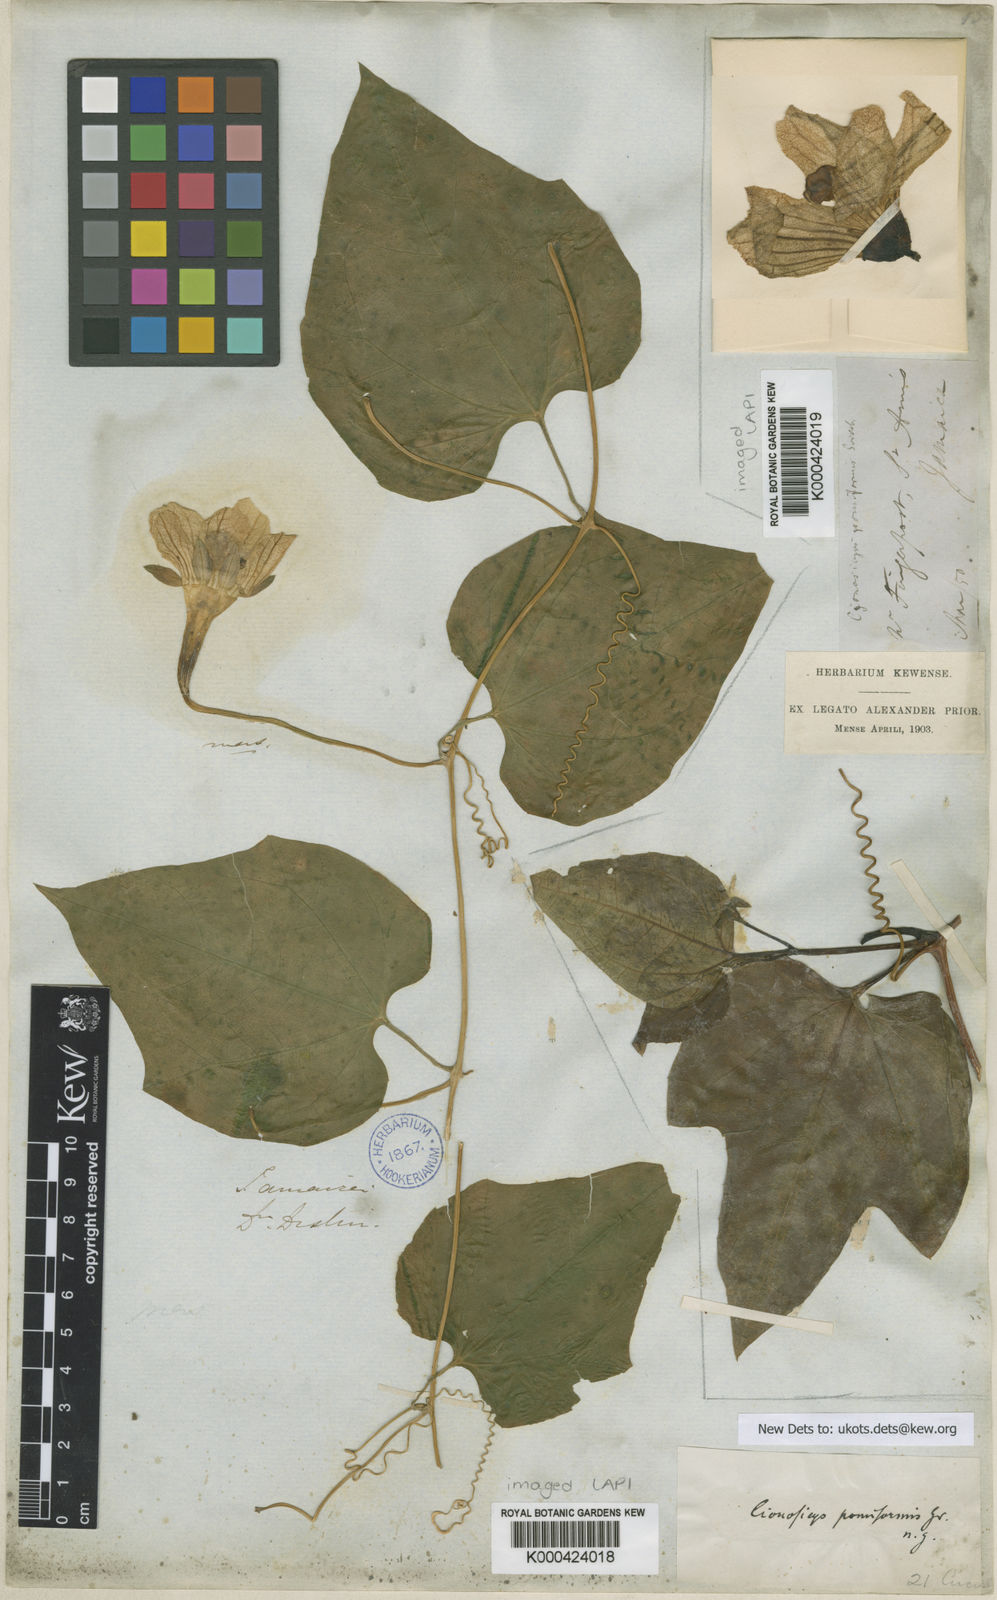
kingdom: Plantae
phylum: Tracheophyta
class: Magnoliopsida
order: Cucurbitales
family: Cucurbitaceae
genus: Cionosicys
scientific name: Cionosicys pomiformis
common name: Duppy gourd
